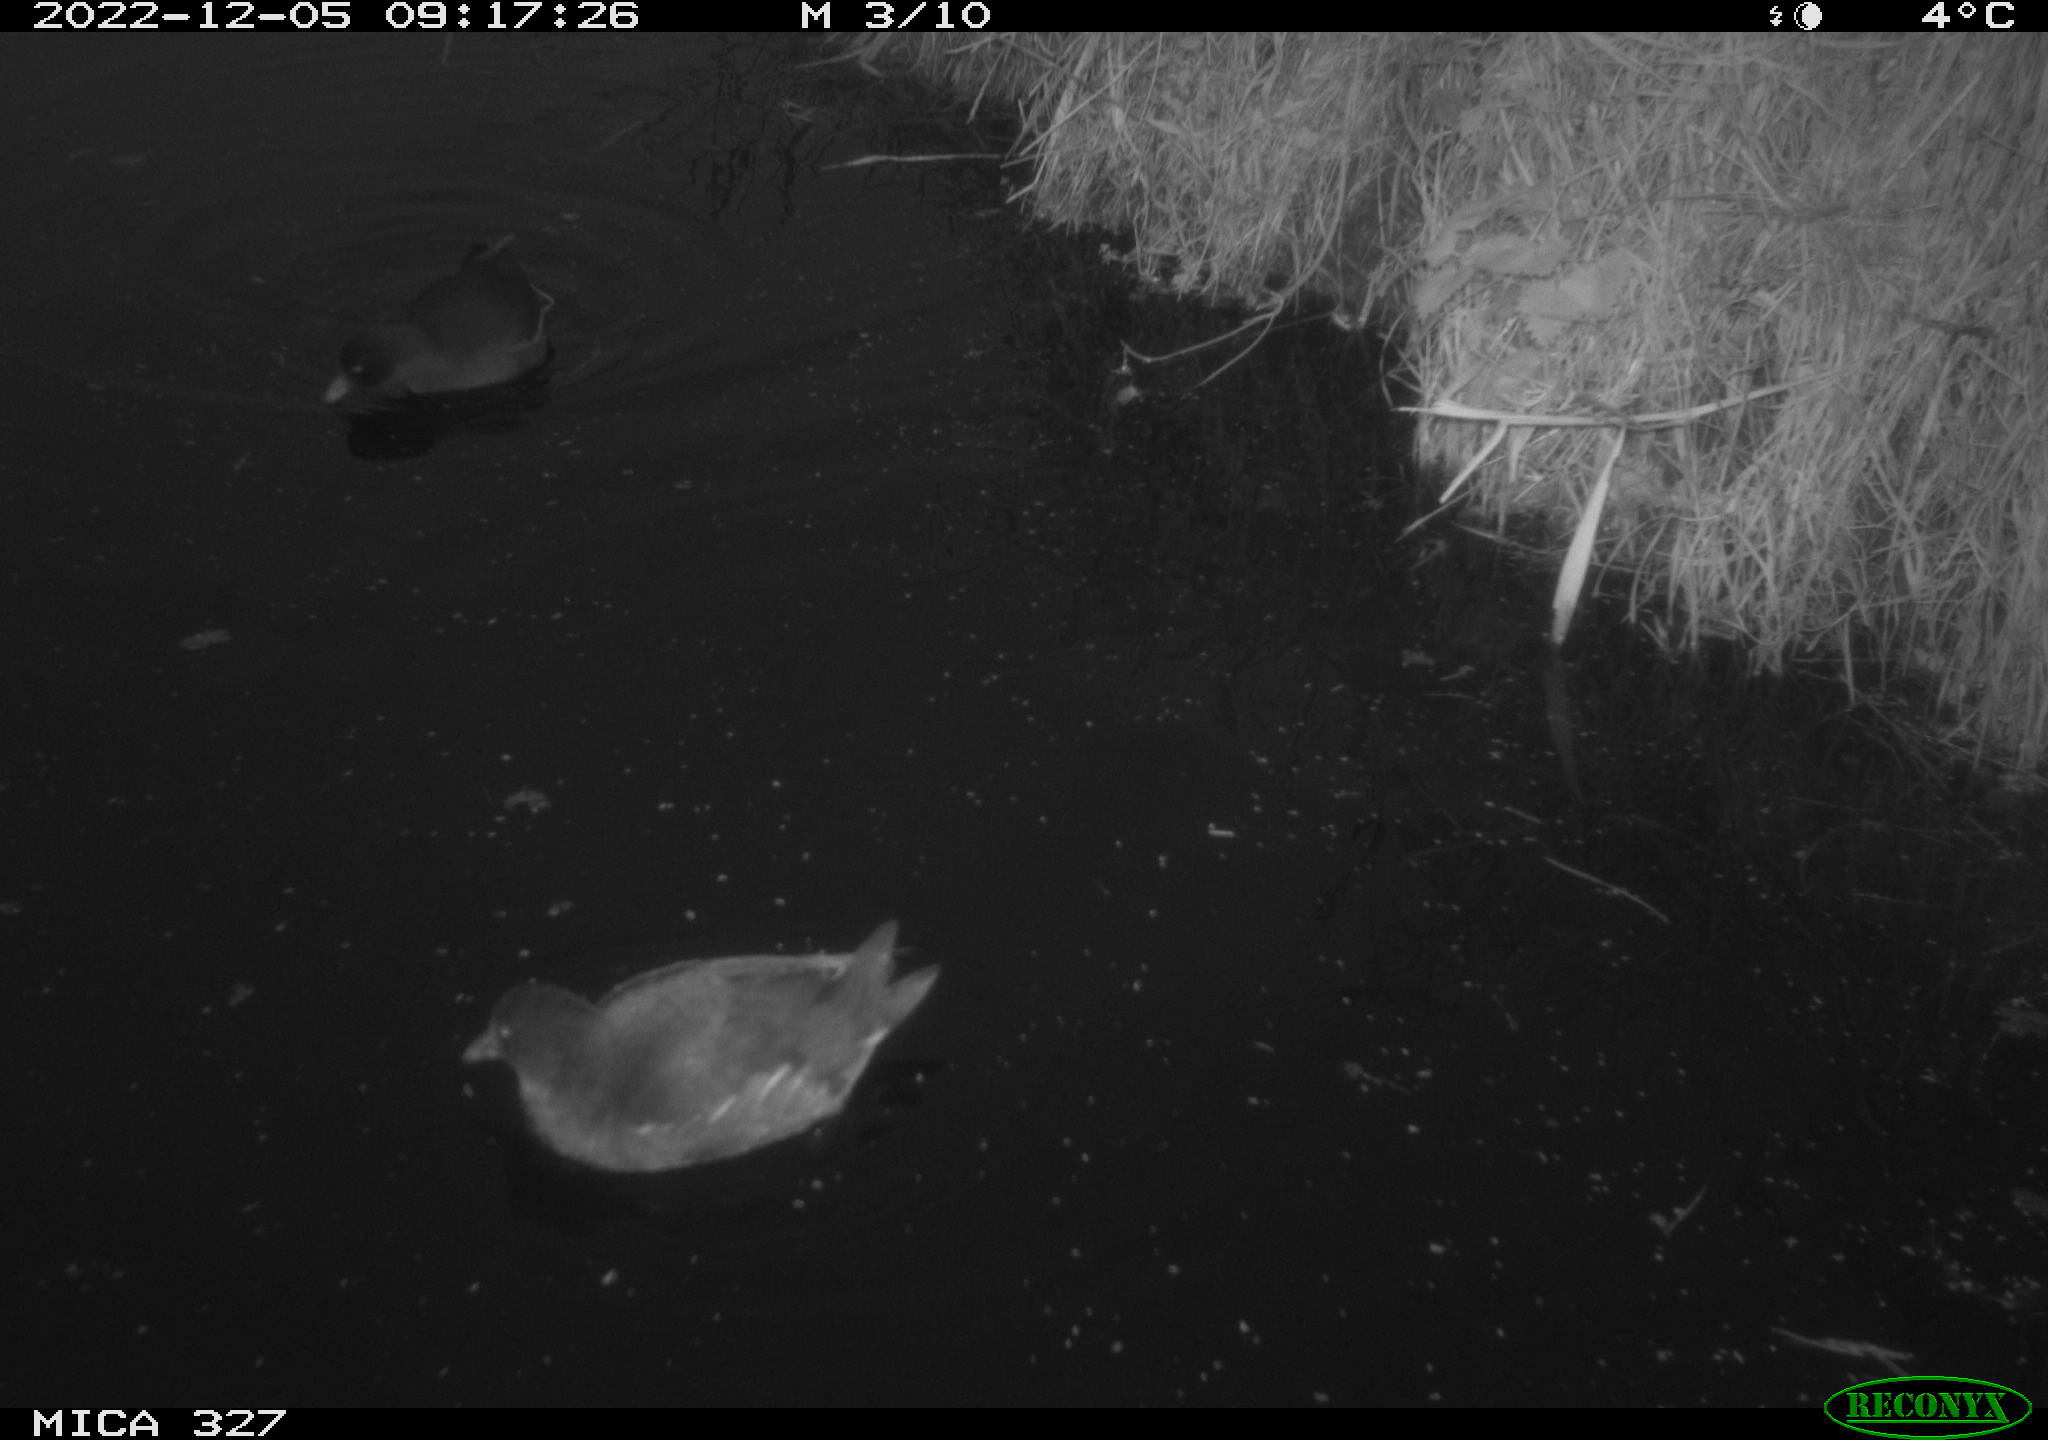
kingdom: Animalia
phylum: Chordata
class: Aves
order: Gruiformes
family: Rallidae
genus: Gallinula
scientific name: Gallinula chloropus
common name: Common moorhen
